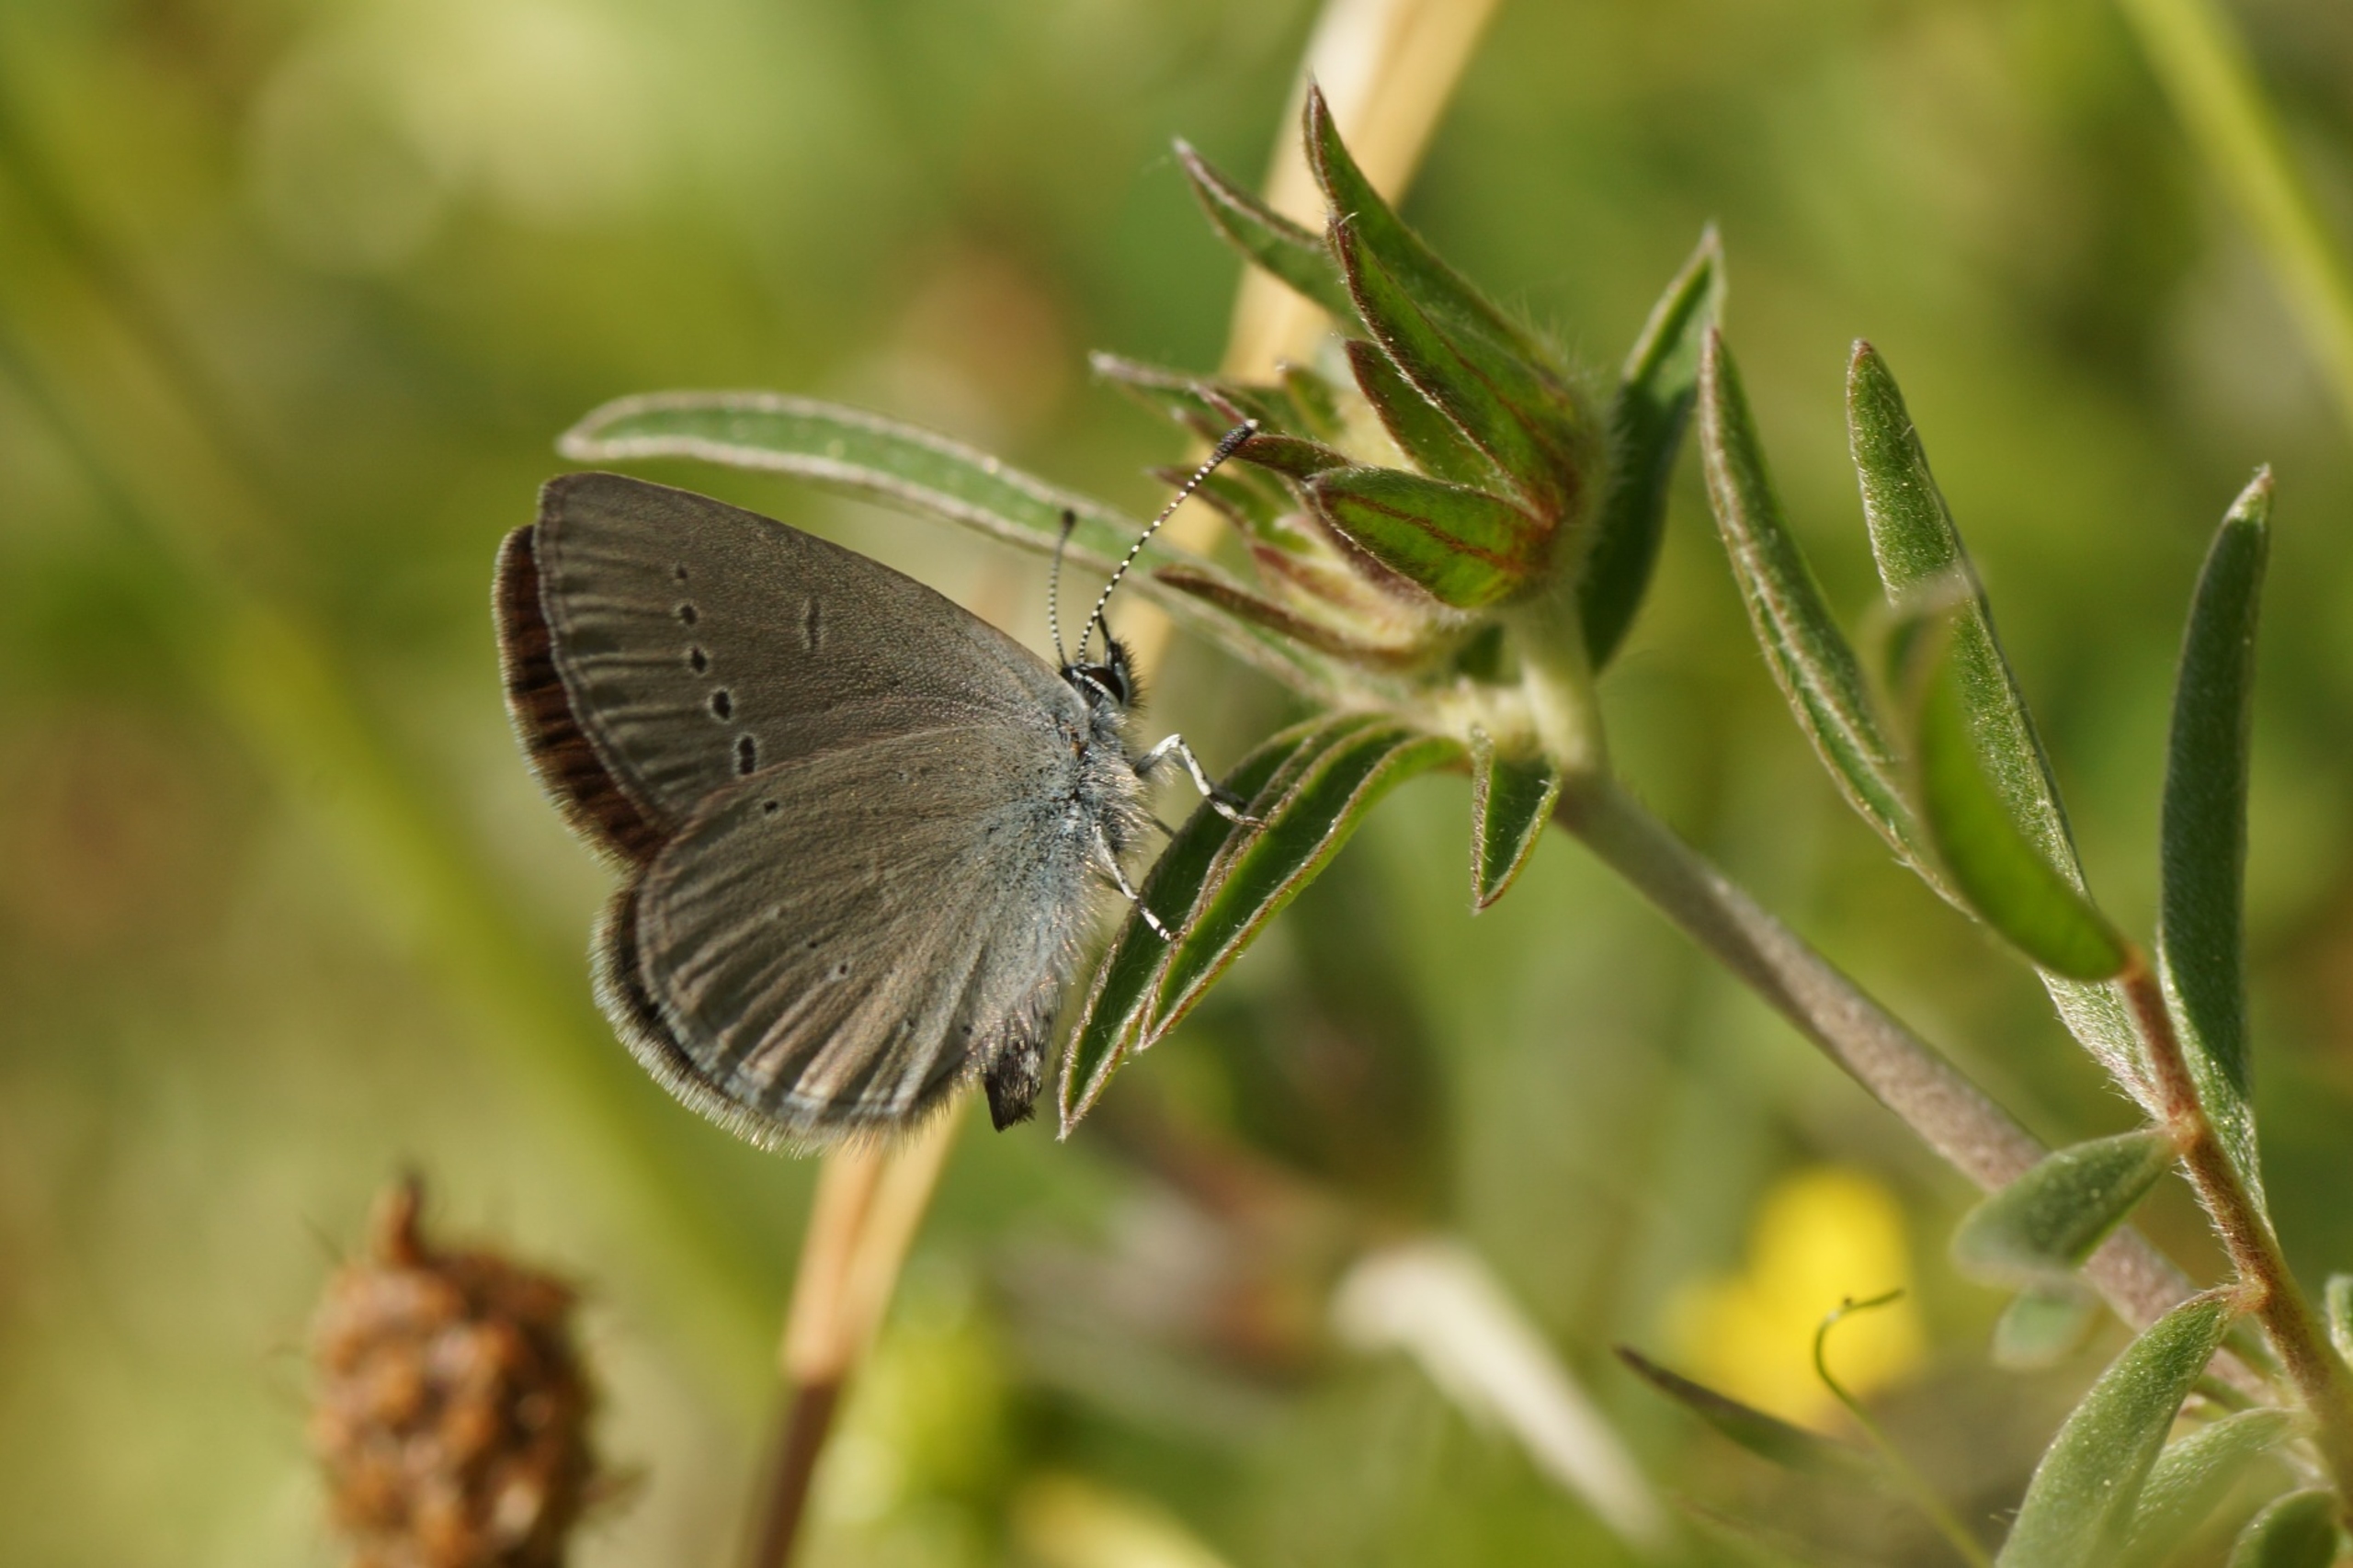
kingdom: Animalia
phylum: Arthropoda
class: Insecta
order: Lepidoptera
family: Lycaenidae
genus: Cupido
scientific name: Cupido minimus
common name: Dværgblåfugl
